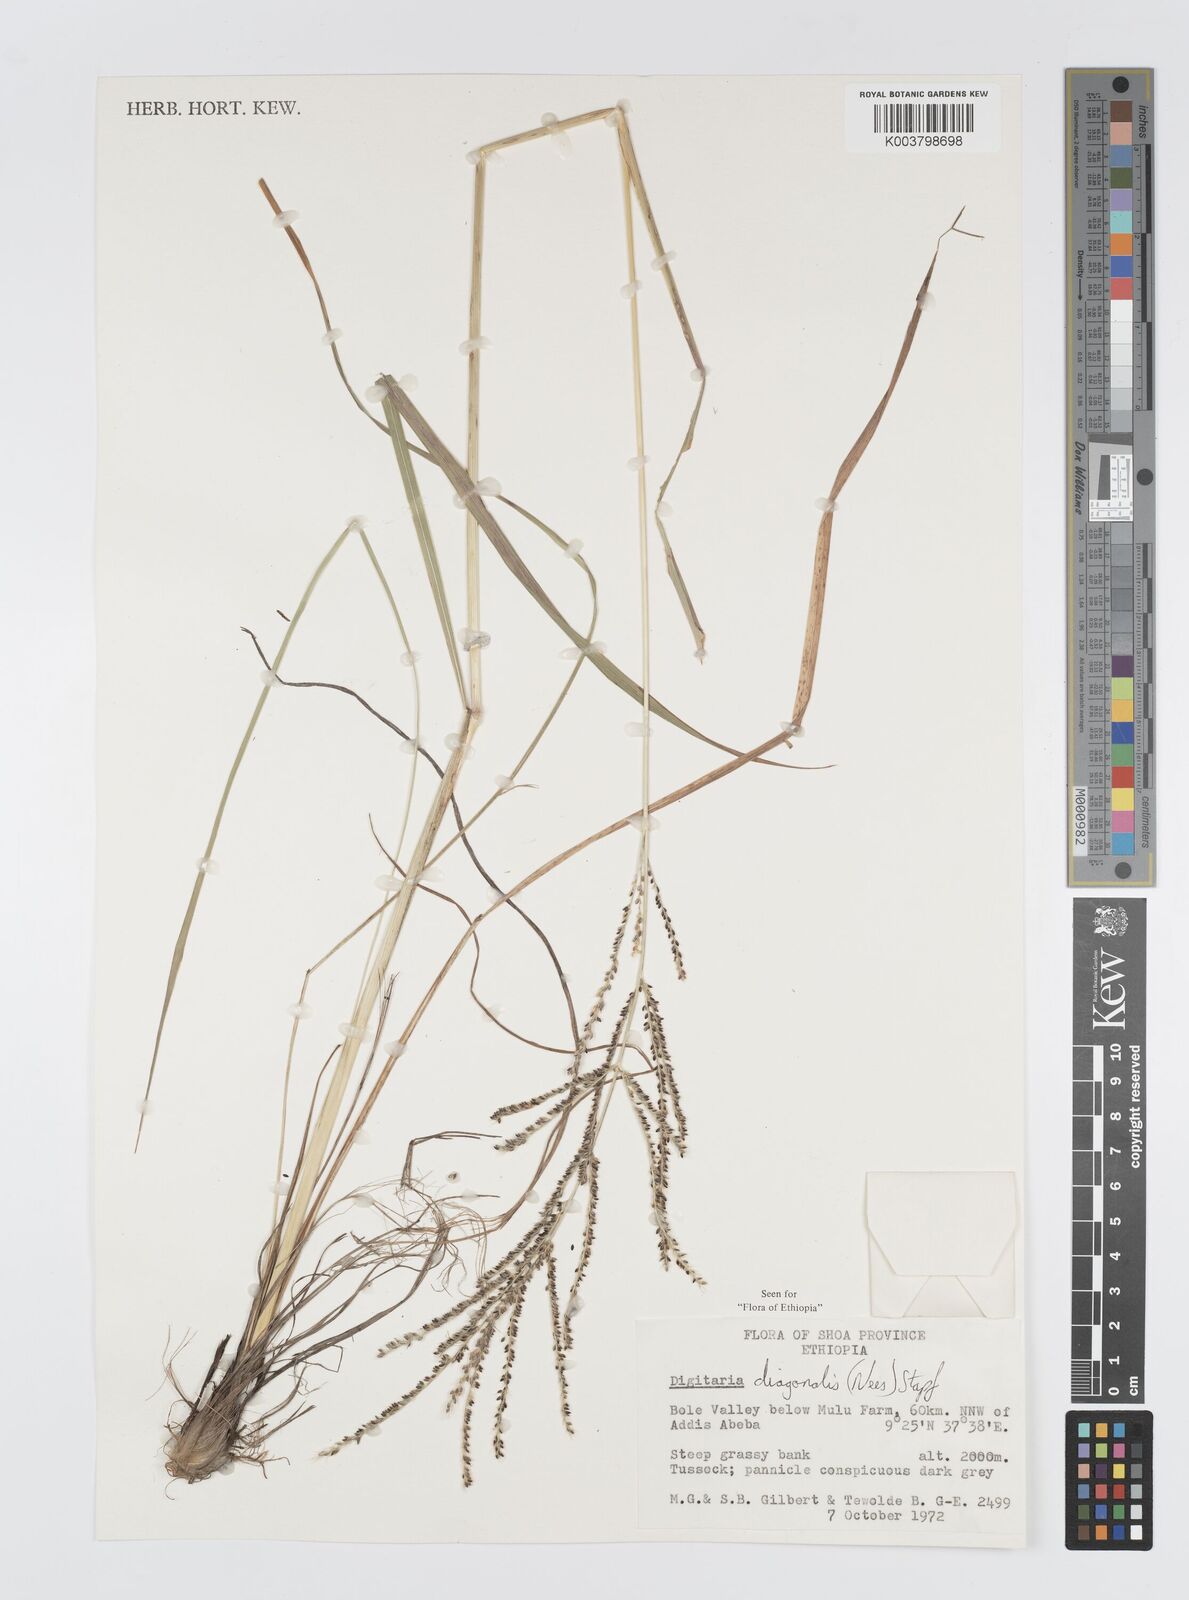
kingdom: Plantae
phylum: Tracheophyta
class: Liliopsida
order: Poales
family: Poaceae
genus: Digitaria
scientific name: Digitaria diagonalis
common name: Brown-seed finger grass
